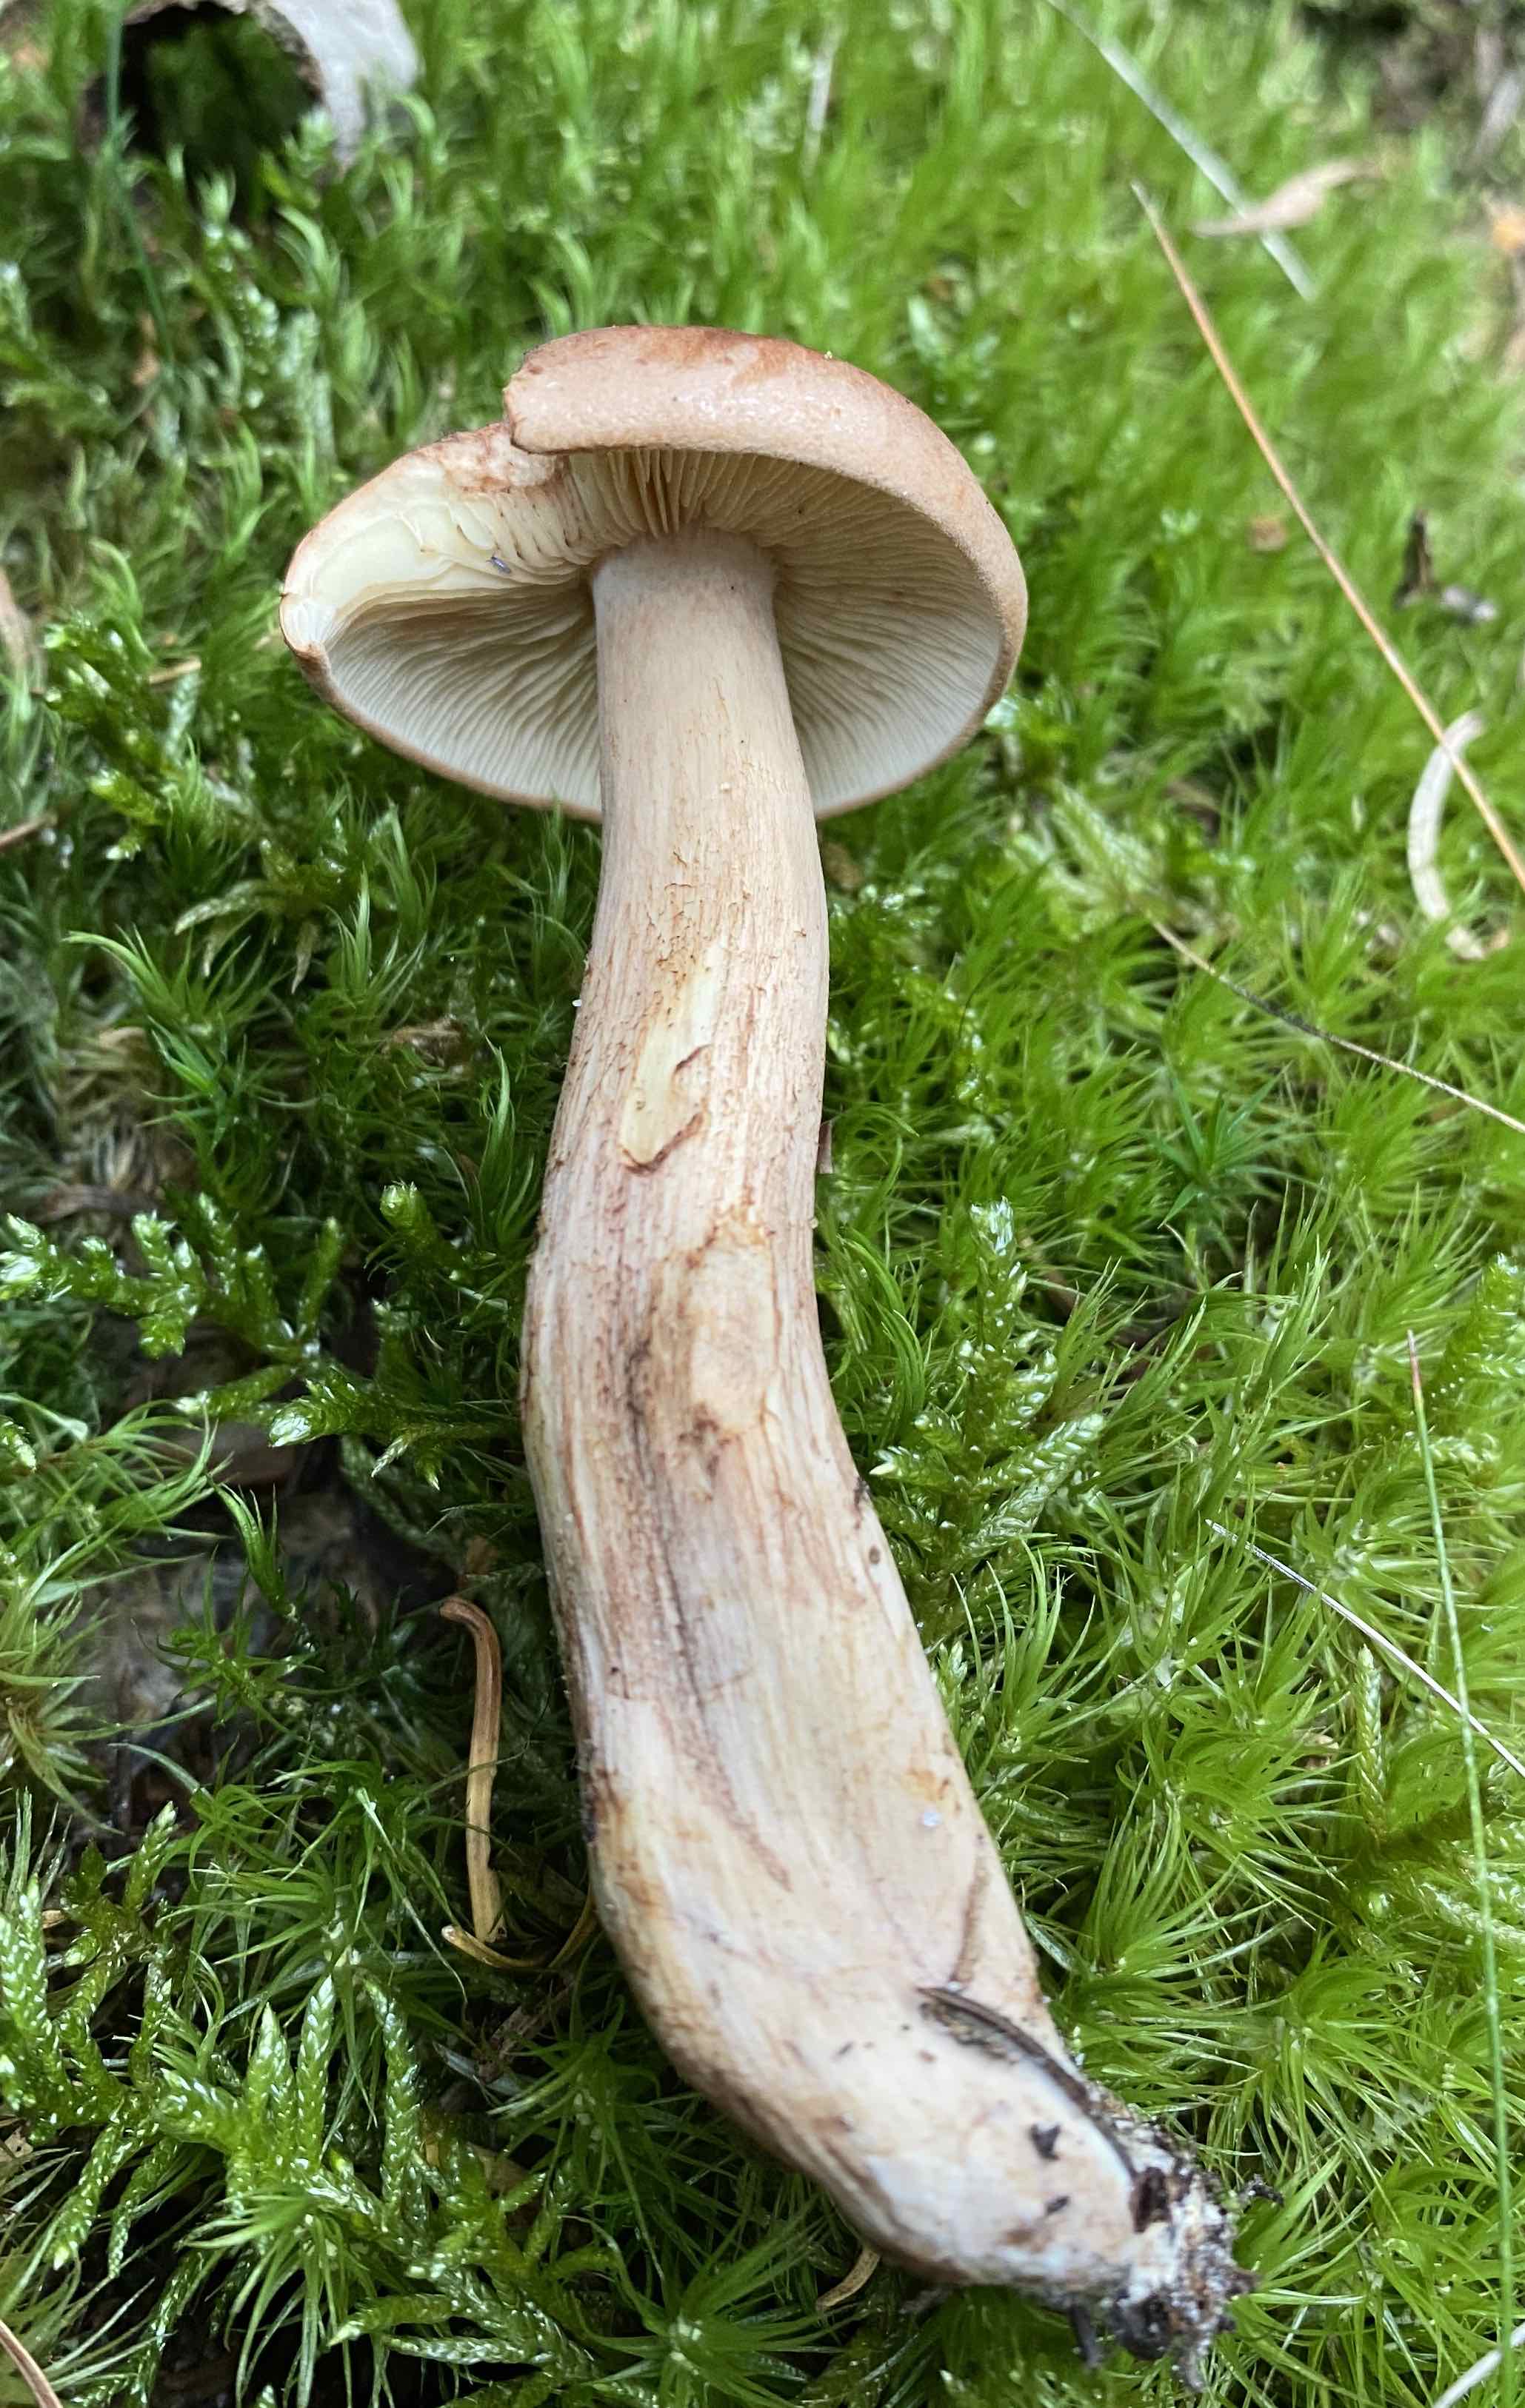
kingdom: Fungi
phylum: Basidiomycota
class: Agaricomycetes
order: Agaricales
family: Tricholomataceae
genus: Tricholoma
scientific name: Tricholoma fulvum
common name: birke-ridderhat
